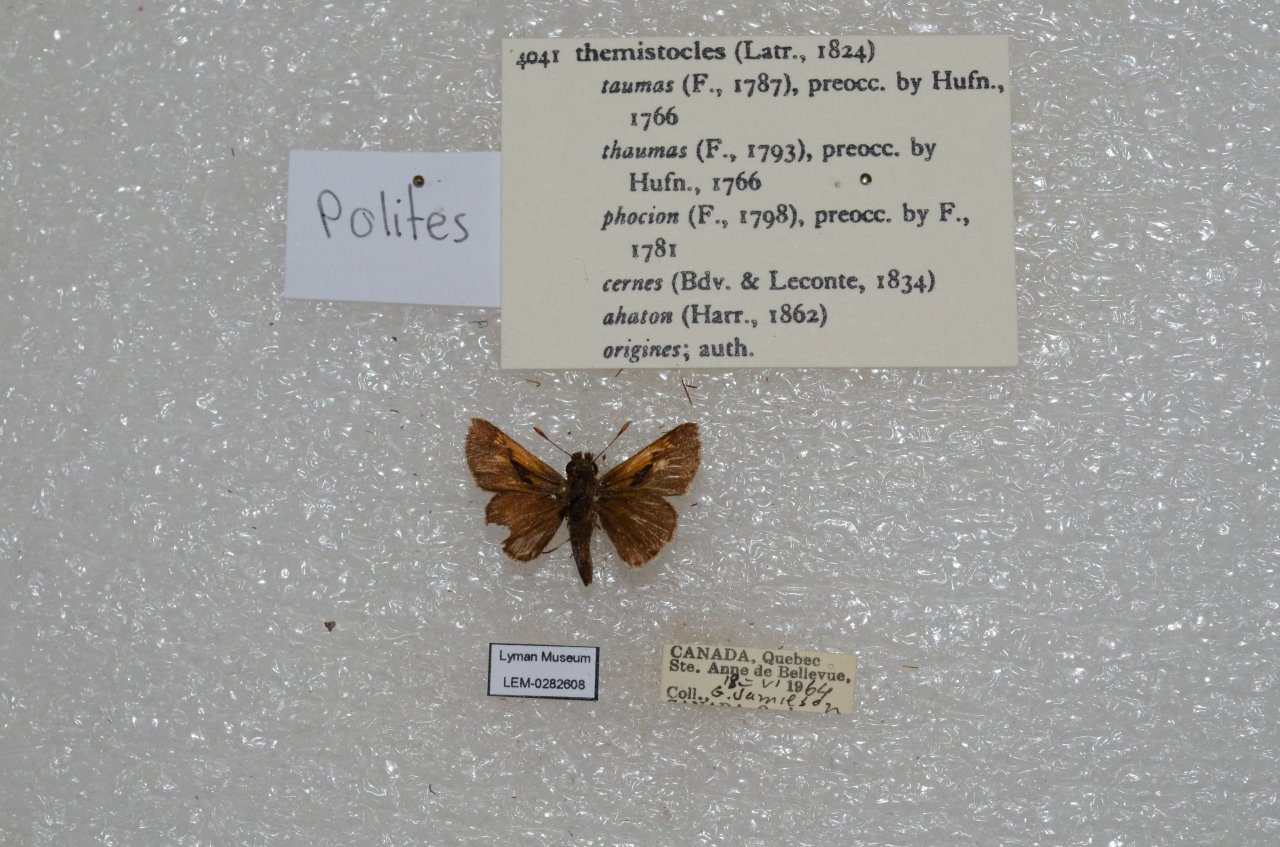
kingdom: Animalia
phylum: Arthropoda
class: Insecta
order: Lepidoptera
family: Hesperiidae
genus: Polites
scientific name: Polites themistocles
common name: Tawny-edged Skipper
